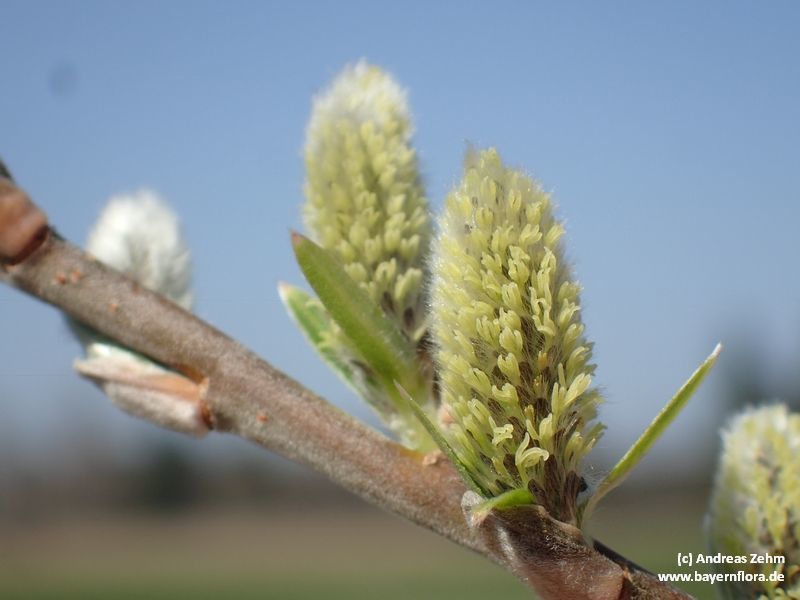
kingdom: Plantae
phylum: Tracheophyta
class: Magnoliopsida
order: Malpighiales
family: Salicaceae
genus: Salix
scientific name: Salix viminalis
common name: Osier
